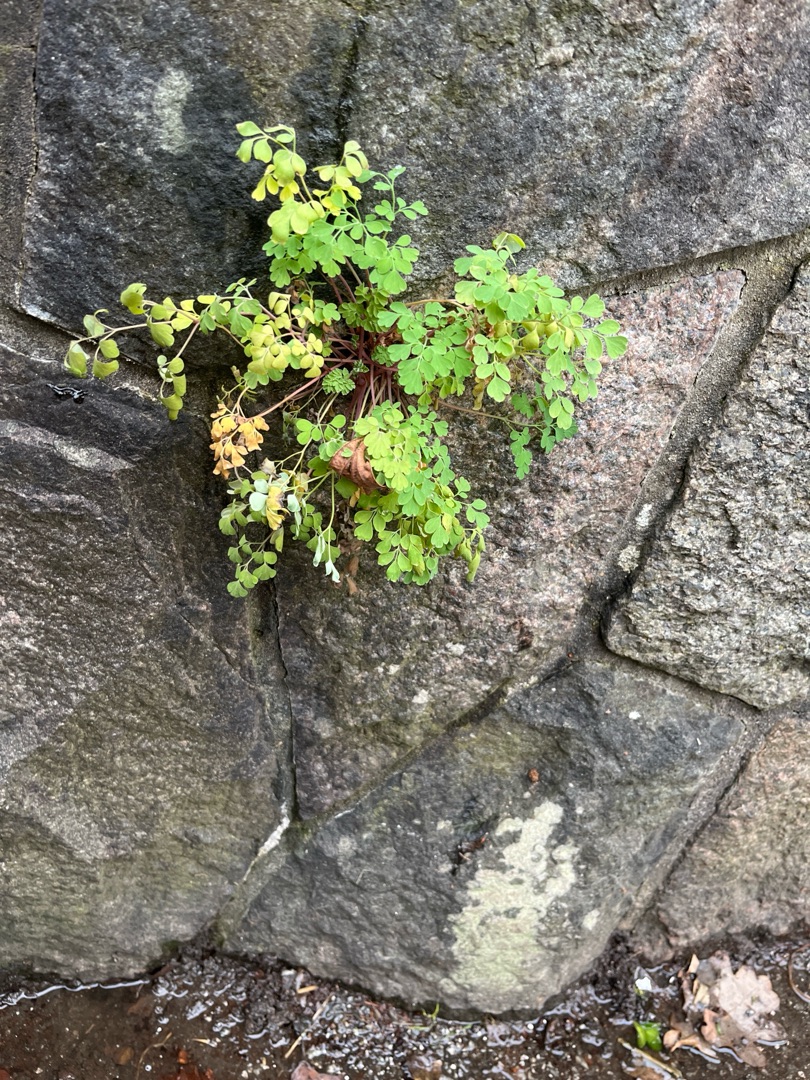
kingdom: Plantae
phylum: Tracheophyta
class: Magnoliopsida
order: Ranunculales
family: Papaveraceae
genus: Pseudofumaria
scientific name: Pseudofumaria lutea
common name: Gul lærkespore
